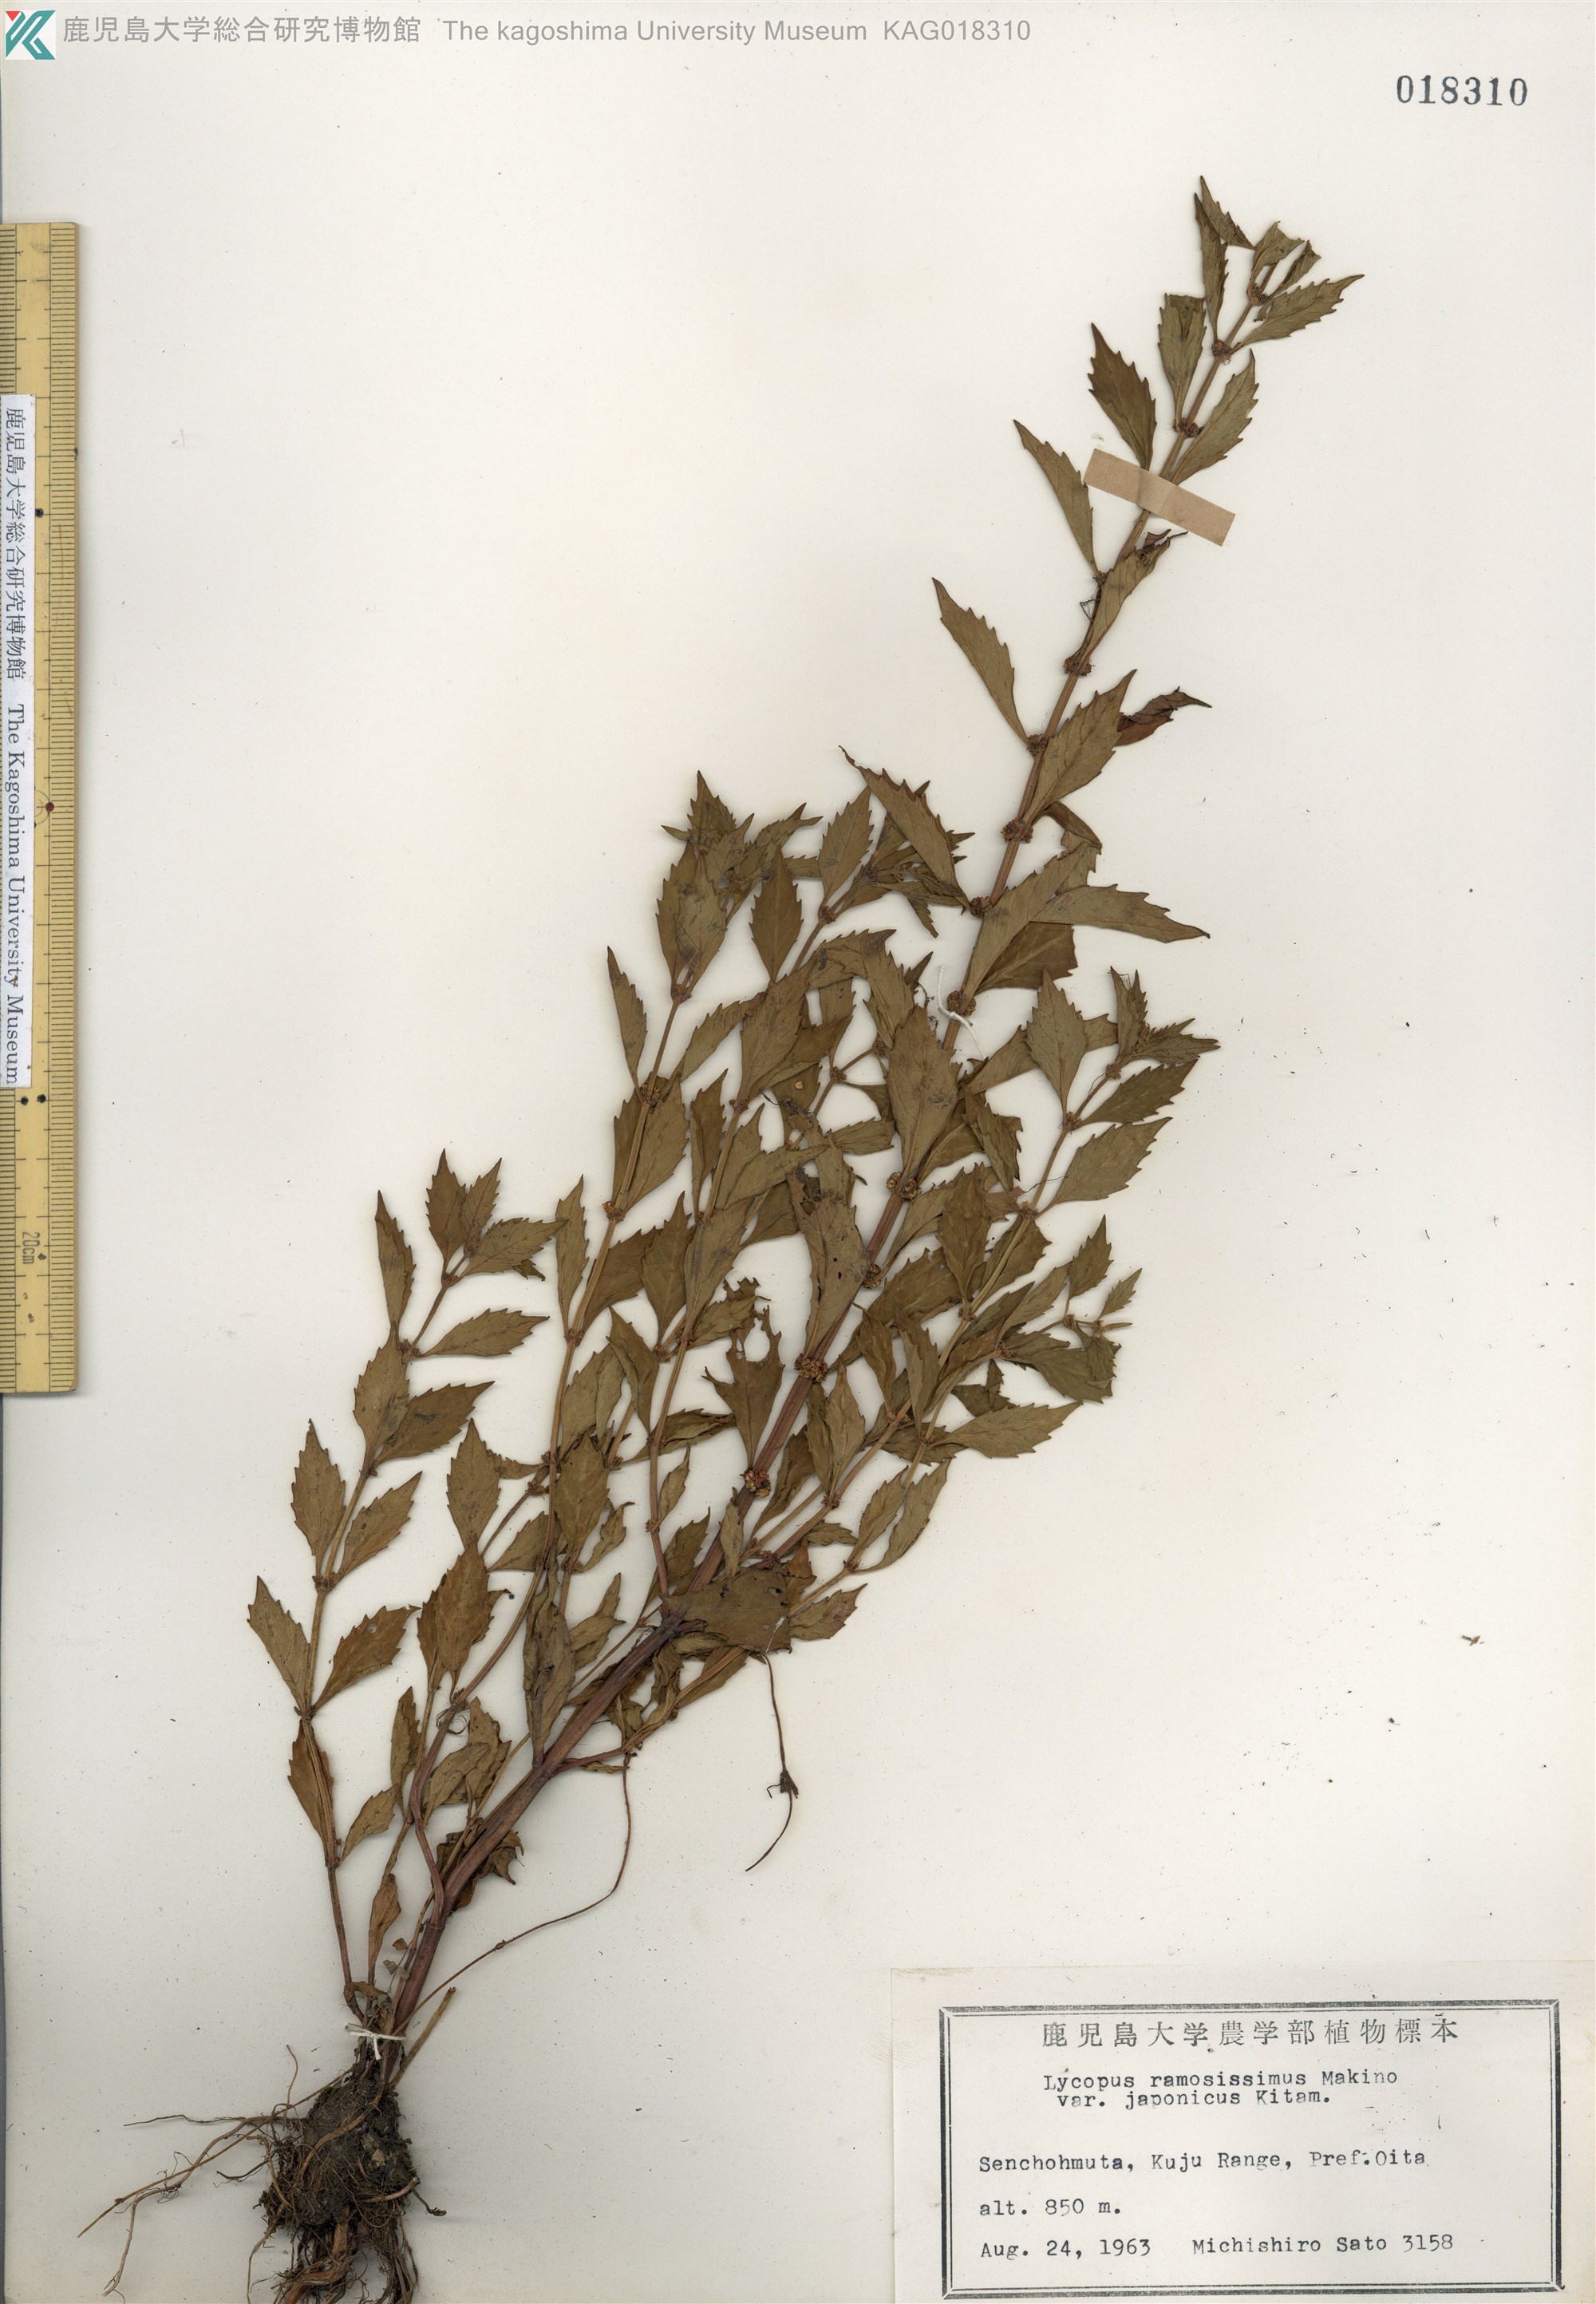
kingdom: Plantae
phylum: Tracheophyta
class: Magnoliopsida
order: Lamiales
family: Lamiaceae
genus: Lycopus
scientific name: Lycopus cavaleriei
